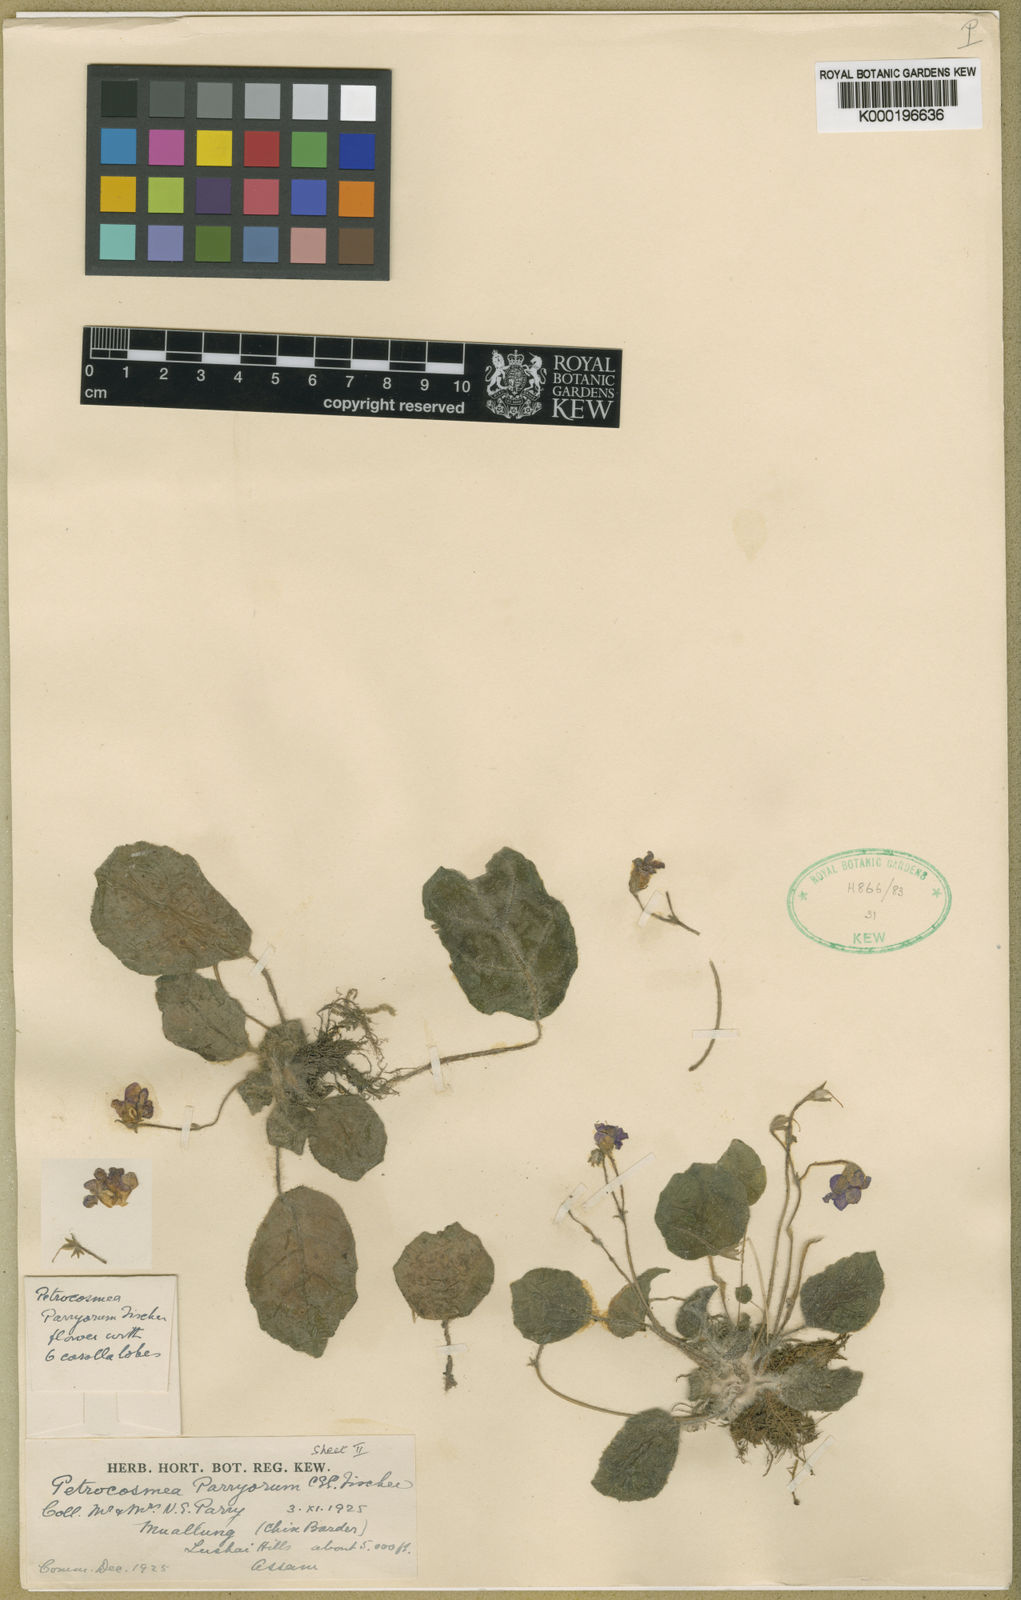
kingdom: Plantae
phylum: Tracheophyta
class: Magnoliopsida
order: Lamiales
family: Gesneriaceae
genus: Petrocosmea
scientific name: Petrocosmea parryorum
